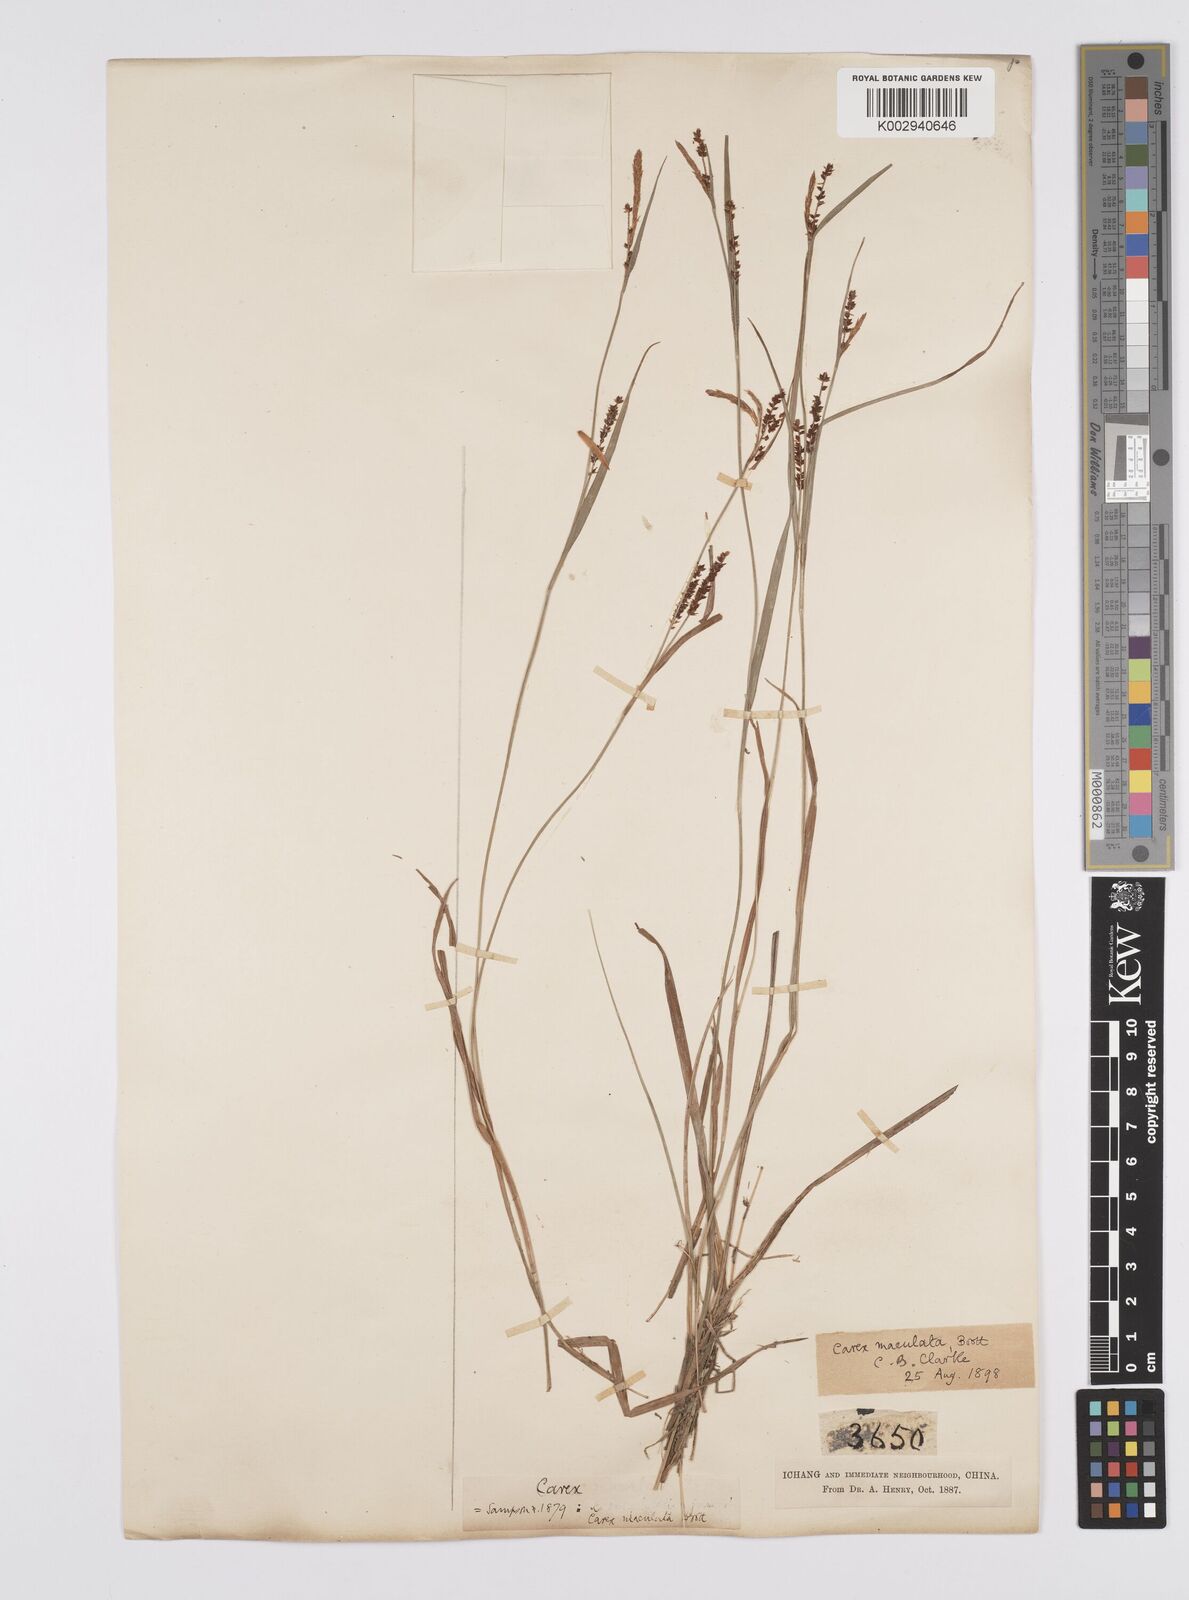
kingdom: Plantae
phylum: Tracheophyta
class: Liliopsida
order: Poales
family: Cyperaceae
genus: Carex
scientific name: Carex maculata
